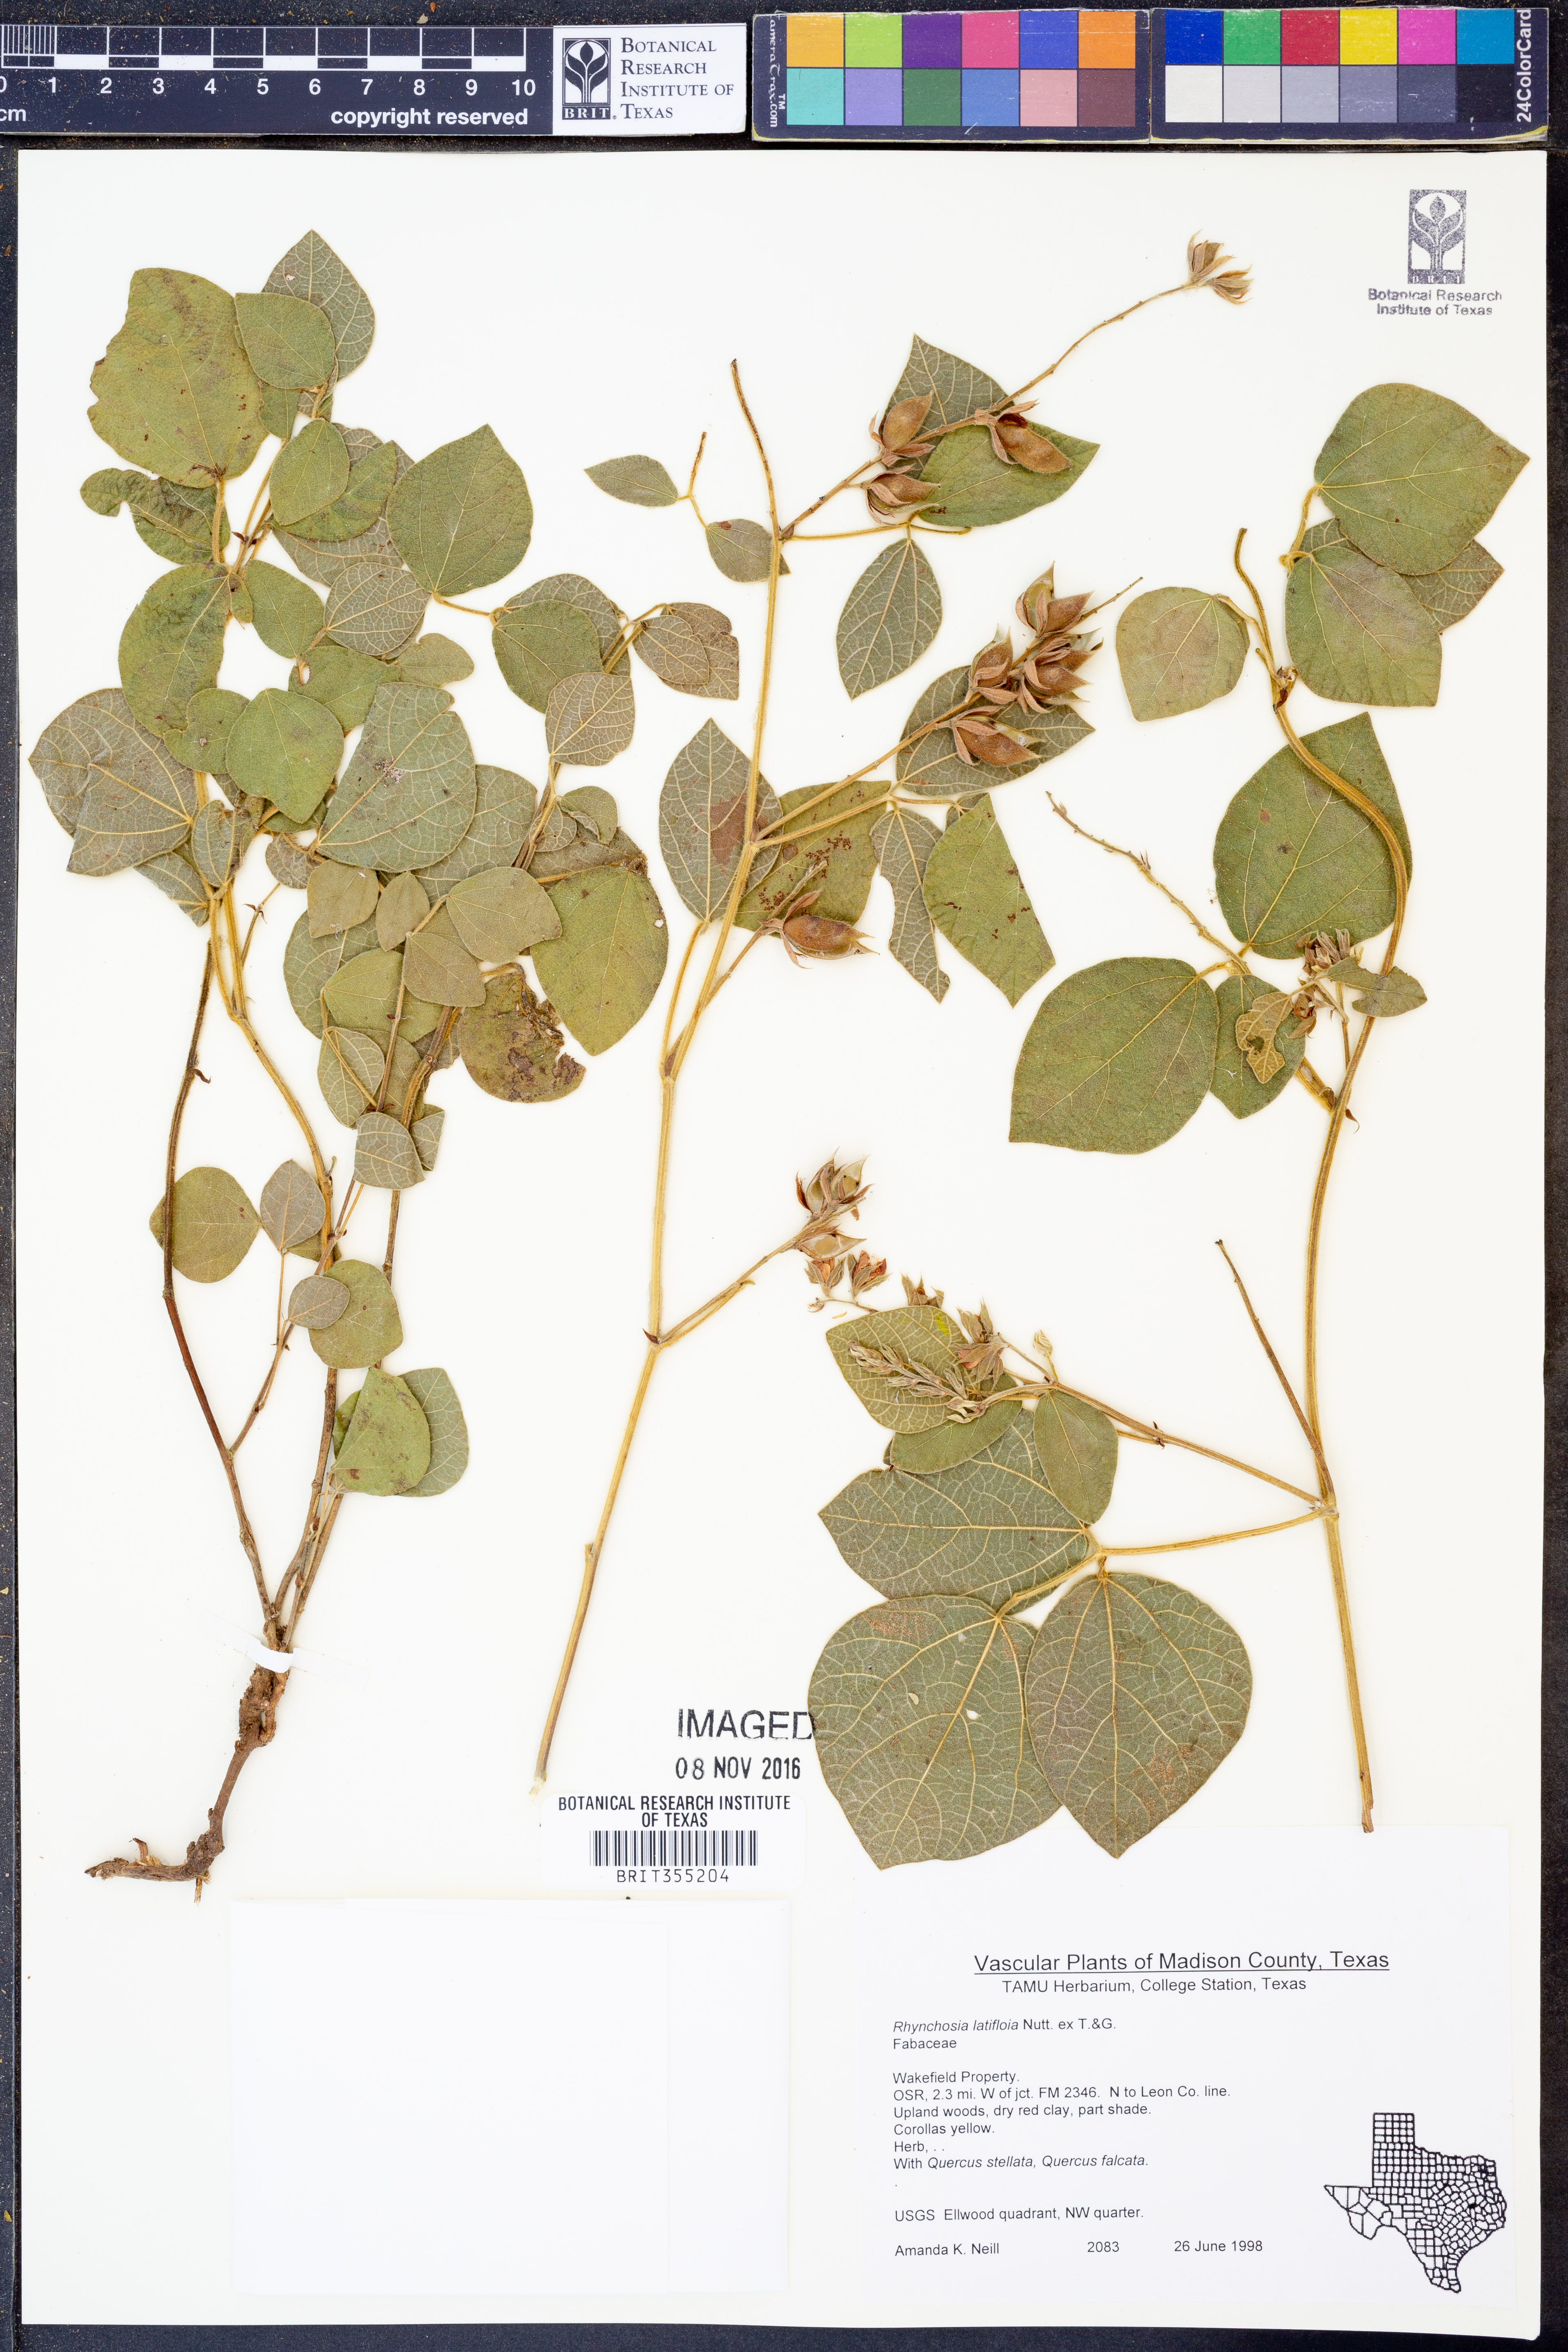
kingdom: Plantae
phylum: Tracheophyta
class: Magnoliopsida
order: Fabales
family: Fabaceae
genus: Rhynchosia
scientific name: Rhynchosia latifolia
